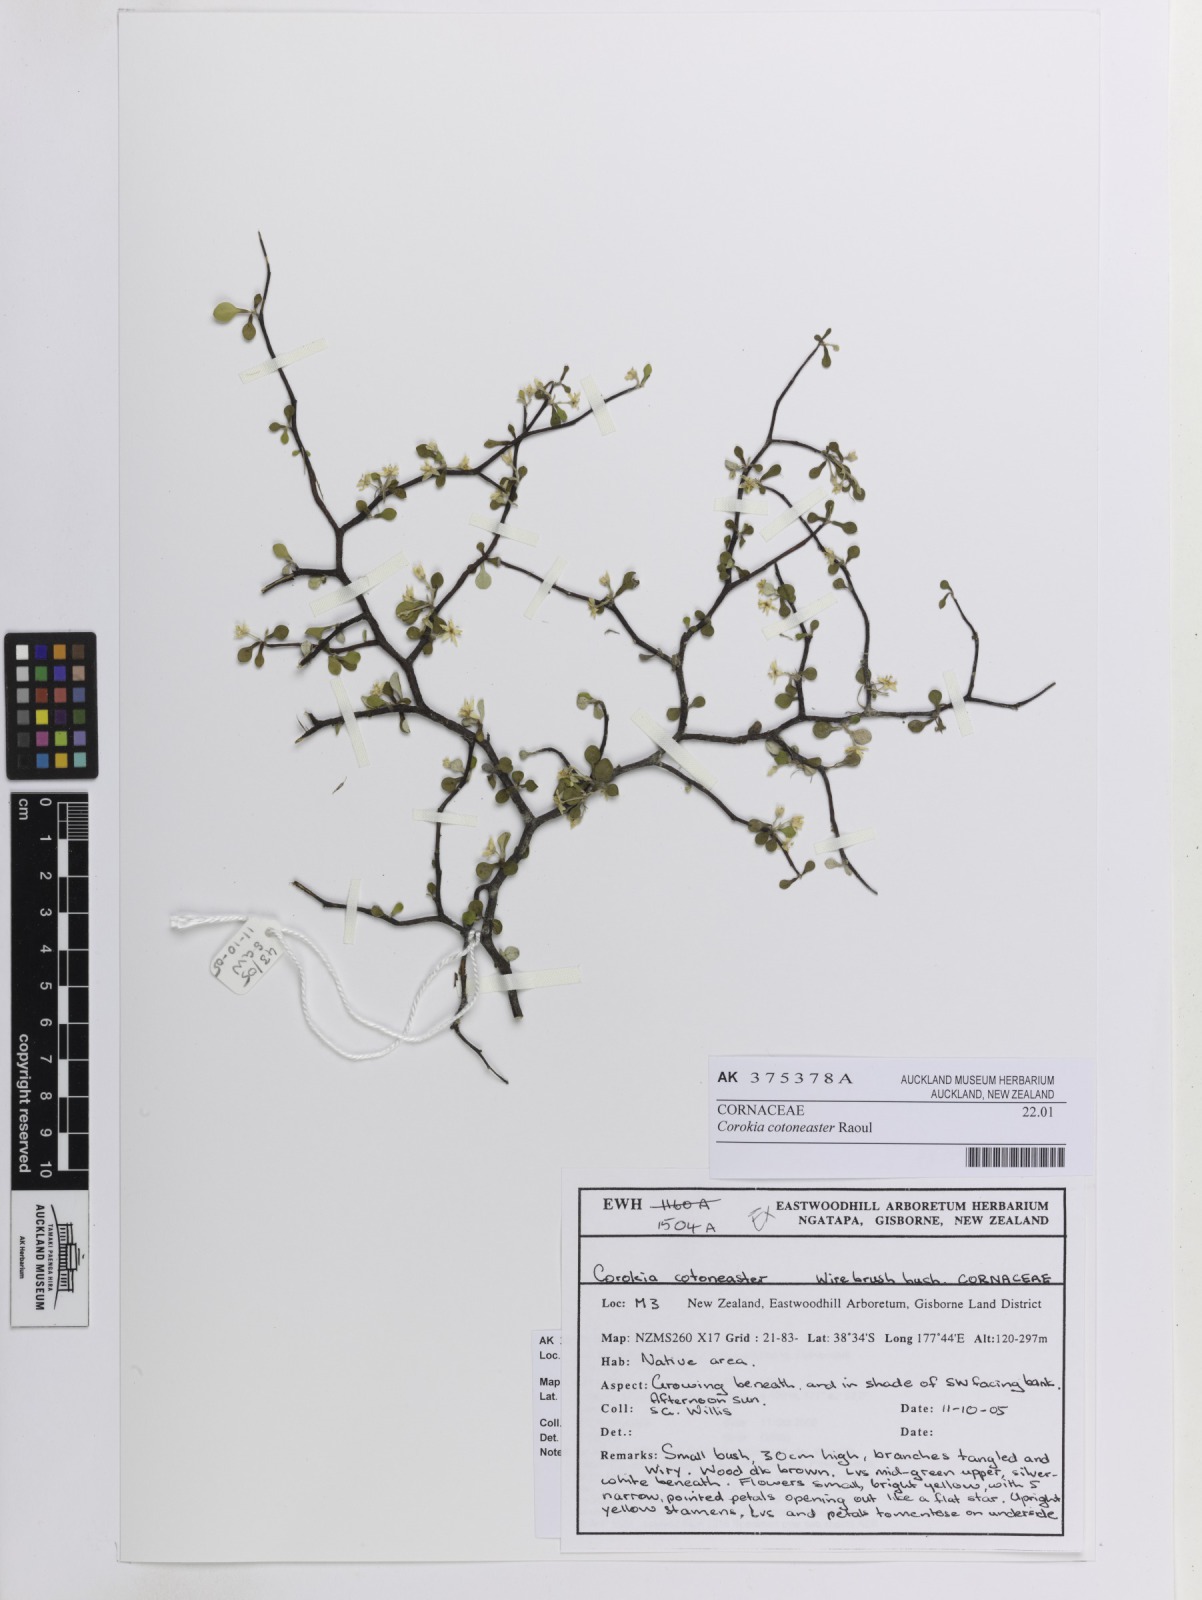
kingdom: Plantae
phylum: Tracheophyta
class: Magnoliopsida
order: Asterales
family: Argophyllaceae
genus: Corokia
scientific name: Corokia cotoneaster
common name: Wire nettingbush
